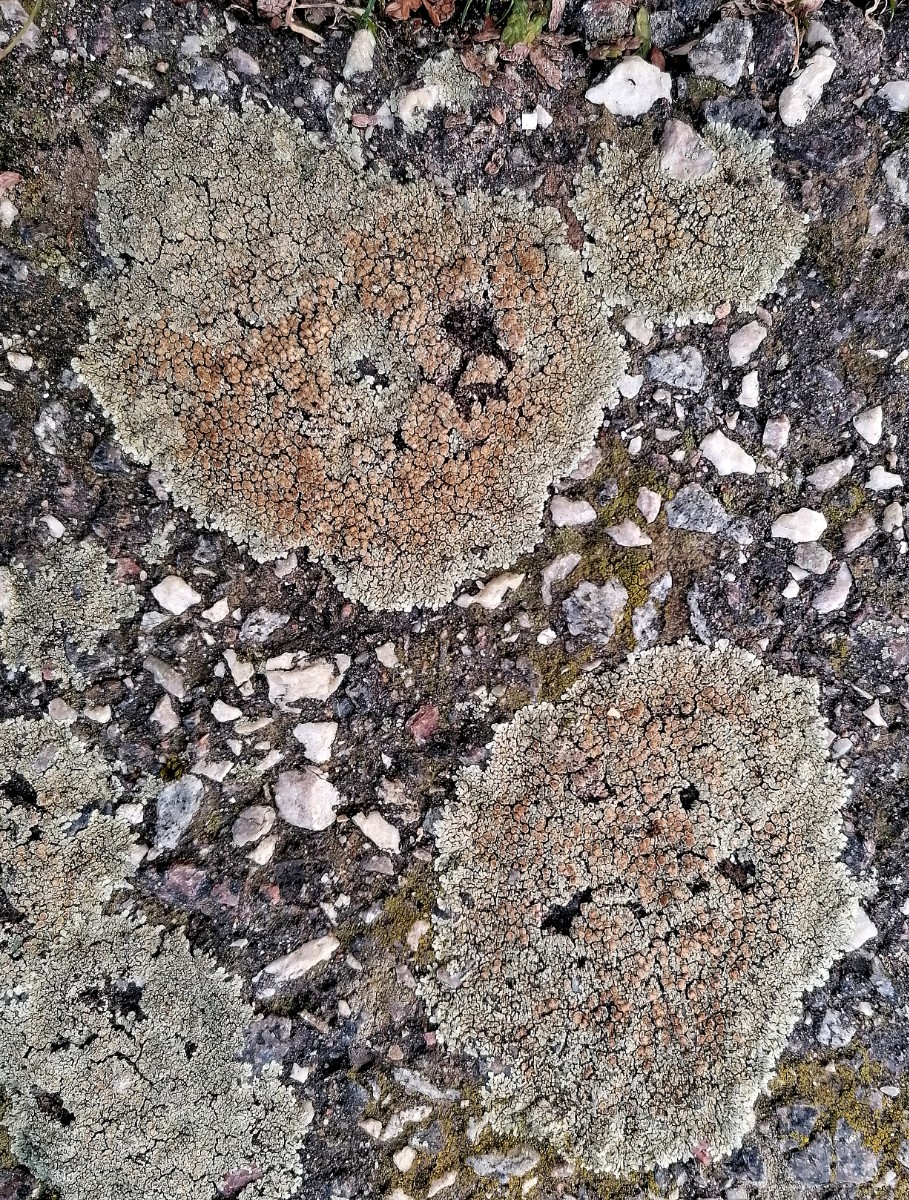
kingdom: Fungi
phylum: Ascomycota
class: Lecanoromycetes
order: Lecanorales
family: Lecanoraceae
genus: Protoparmeliopsis
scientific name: Protoparmeliopsis muralis
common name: randfliget kantskivelav
